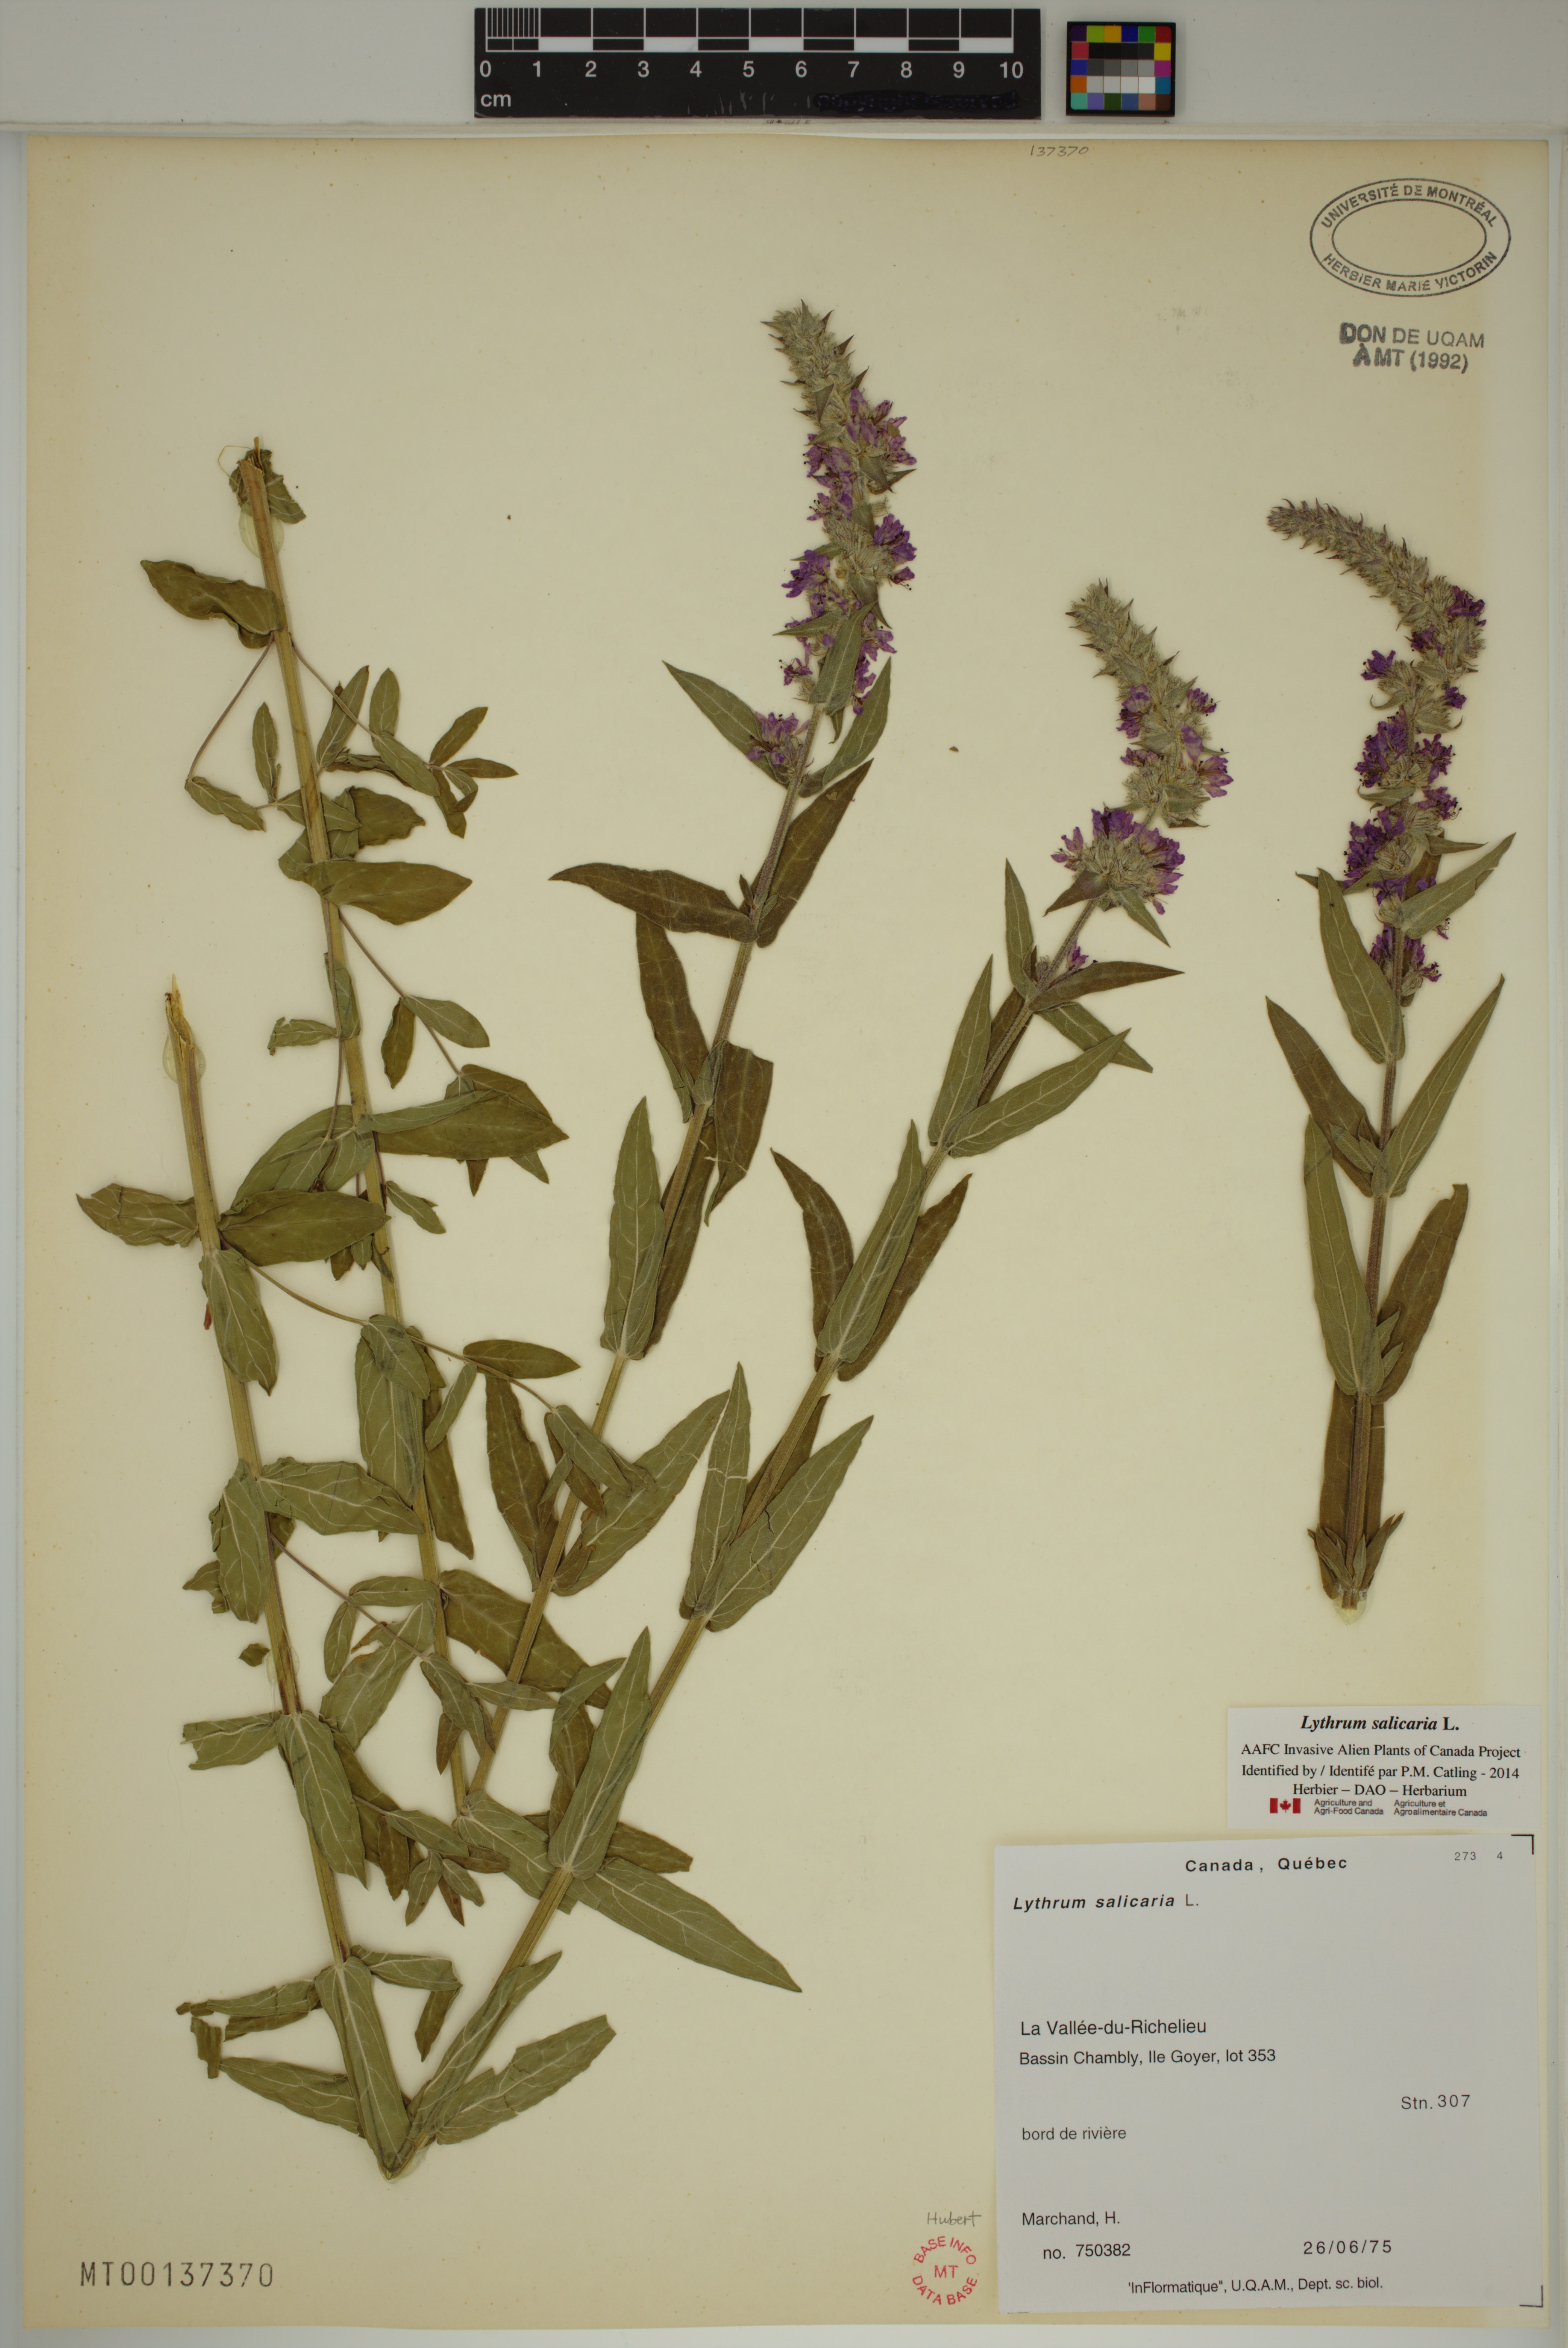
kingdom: Plantae
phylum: Tracheophyta
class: Magnoliopsida
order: Myrtales
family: Lythraceae
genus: Lythrum
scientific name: Lythrum salicaria
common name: Purple loosestrife
